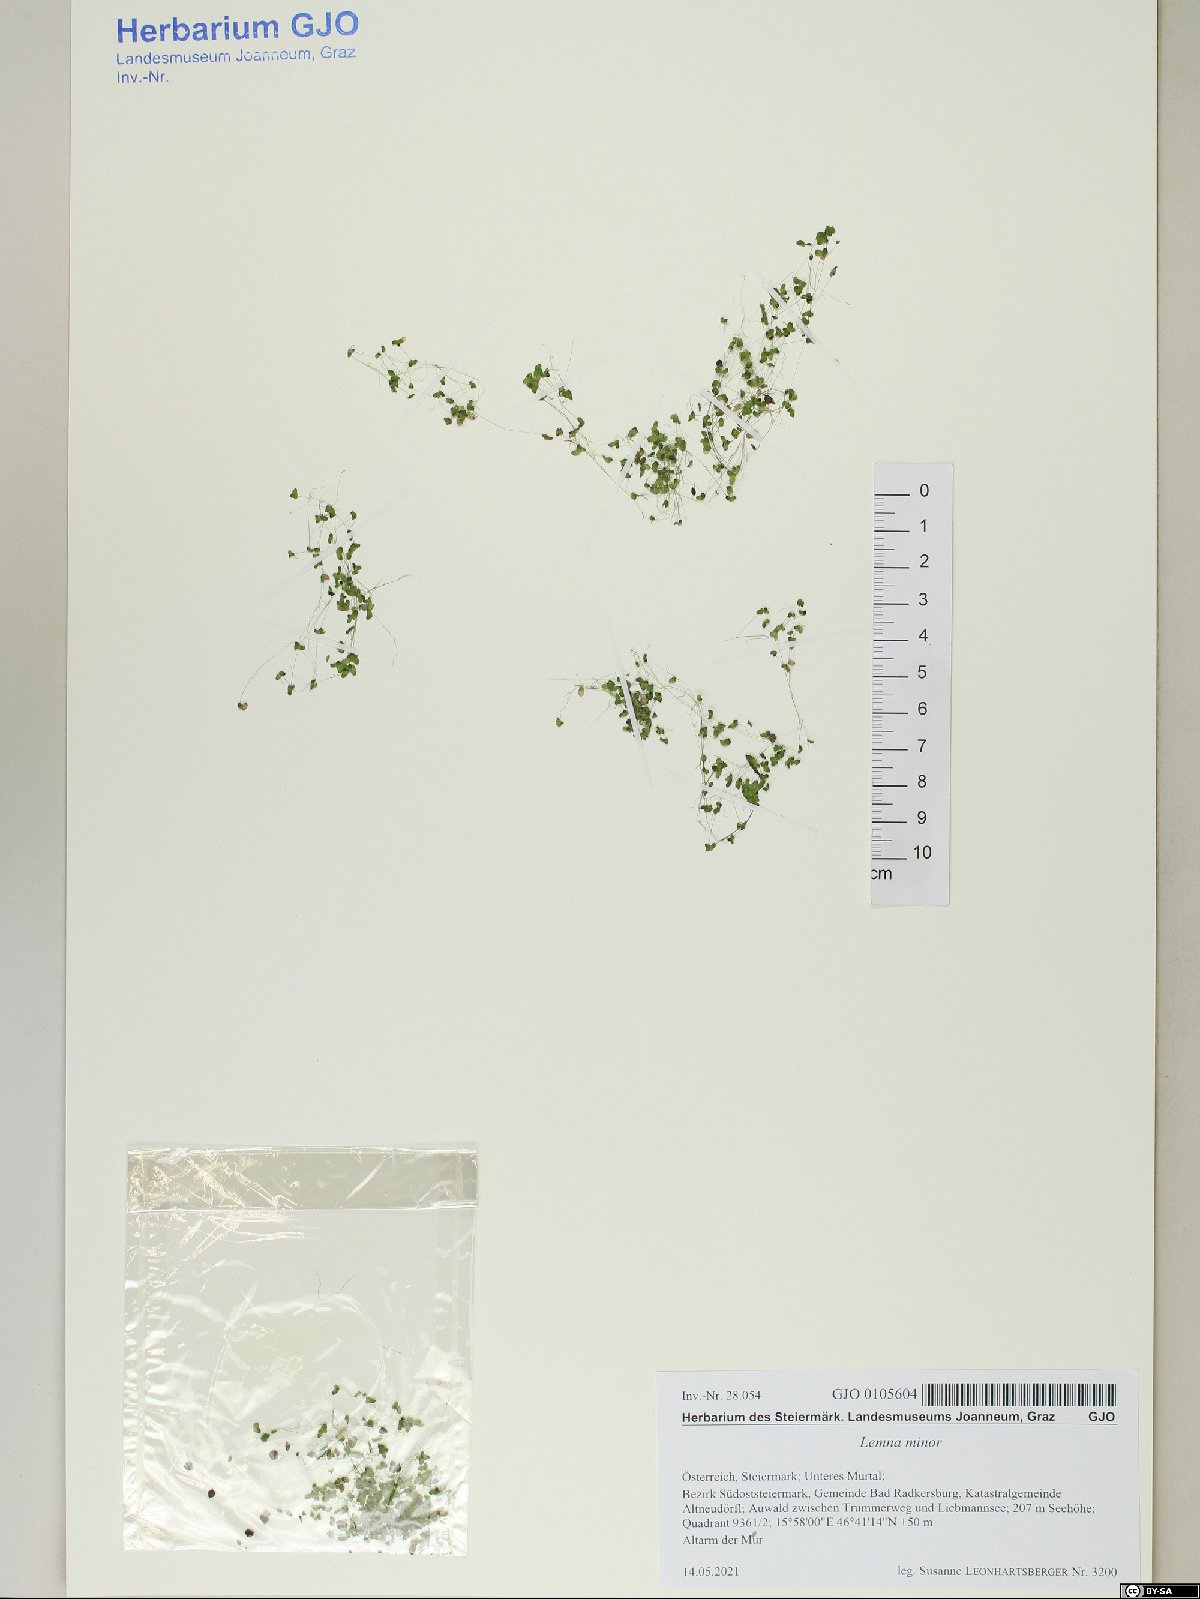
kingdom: Plantae
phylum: Tracheophyta
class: Liliopsida
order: Alismatales
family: Araceae
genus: Lemna
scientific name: Lemna minor
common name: Common duckweed
